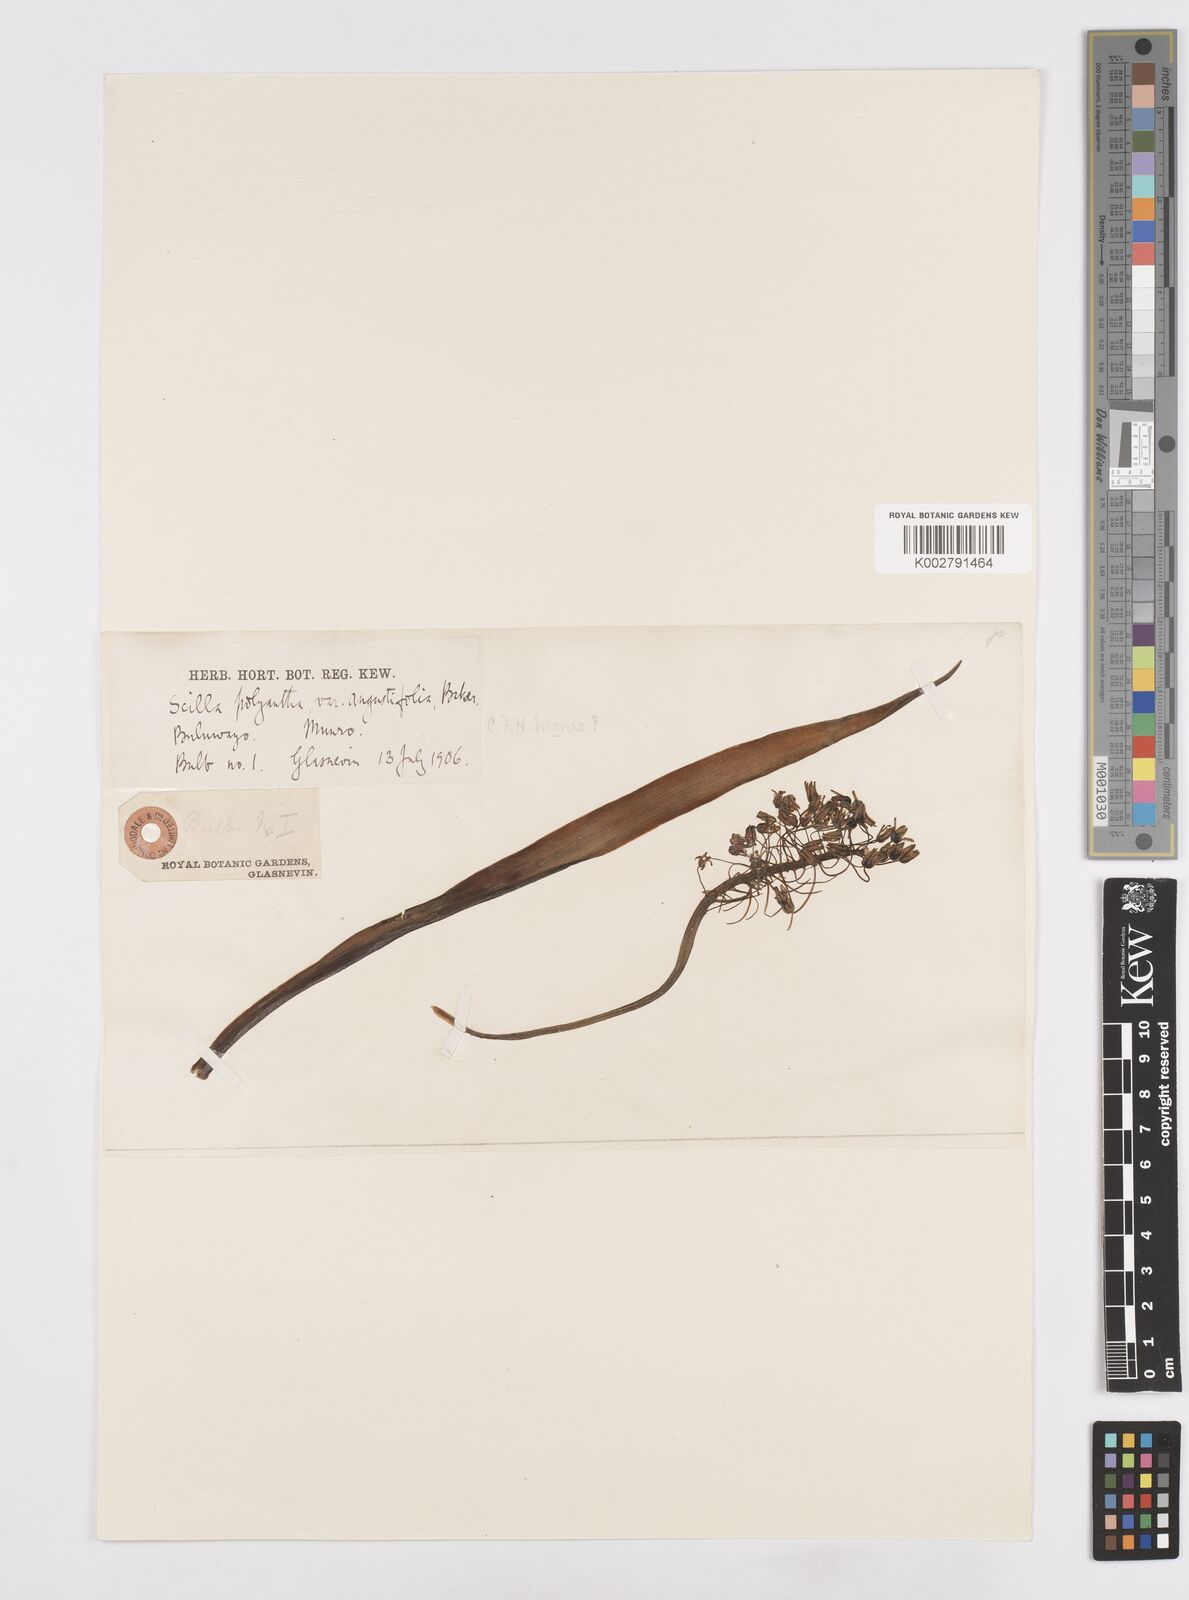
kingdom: Plantae
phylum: Tracheophyta
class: Liliopsida
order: Asparagales
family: Asparagaceae
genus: Scilla
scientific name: Scilla
